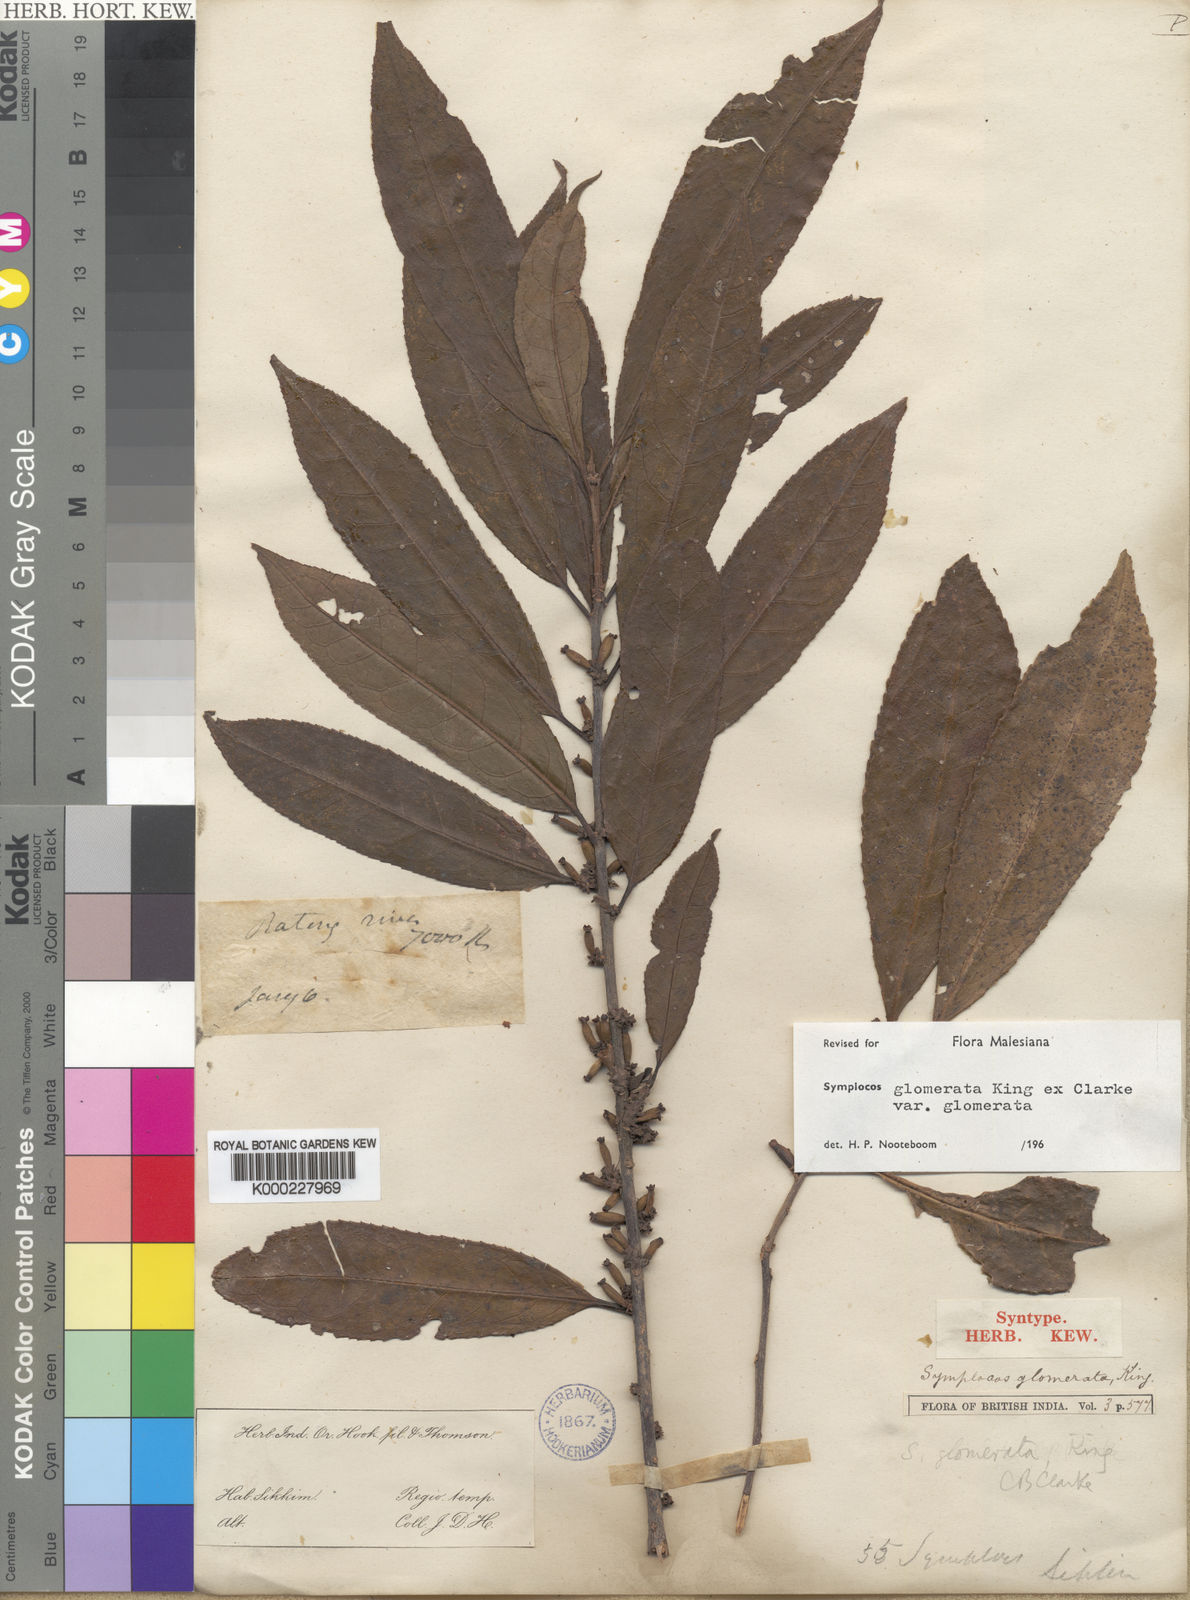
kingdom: Plantae
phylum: Tracheophyta
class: Magnoliopsida
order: Ericales
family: Symplocaceae
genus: Symplocos
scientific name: Symplocos glomerata
